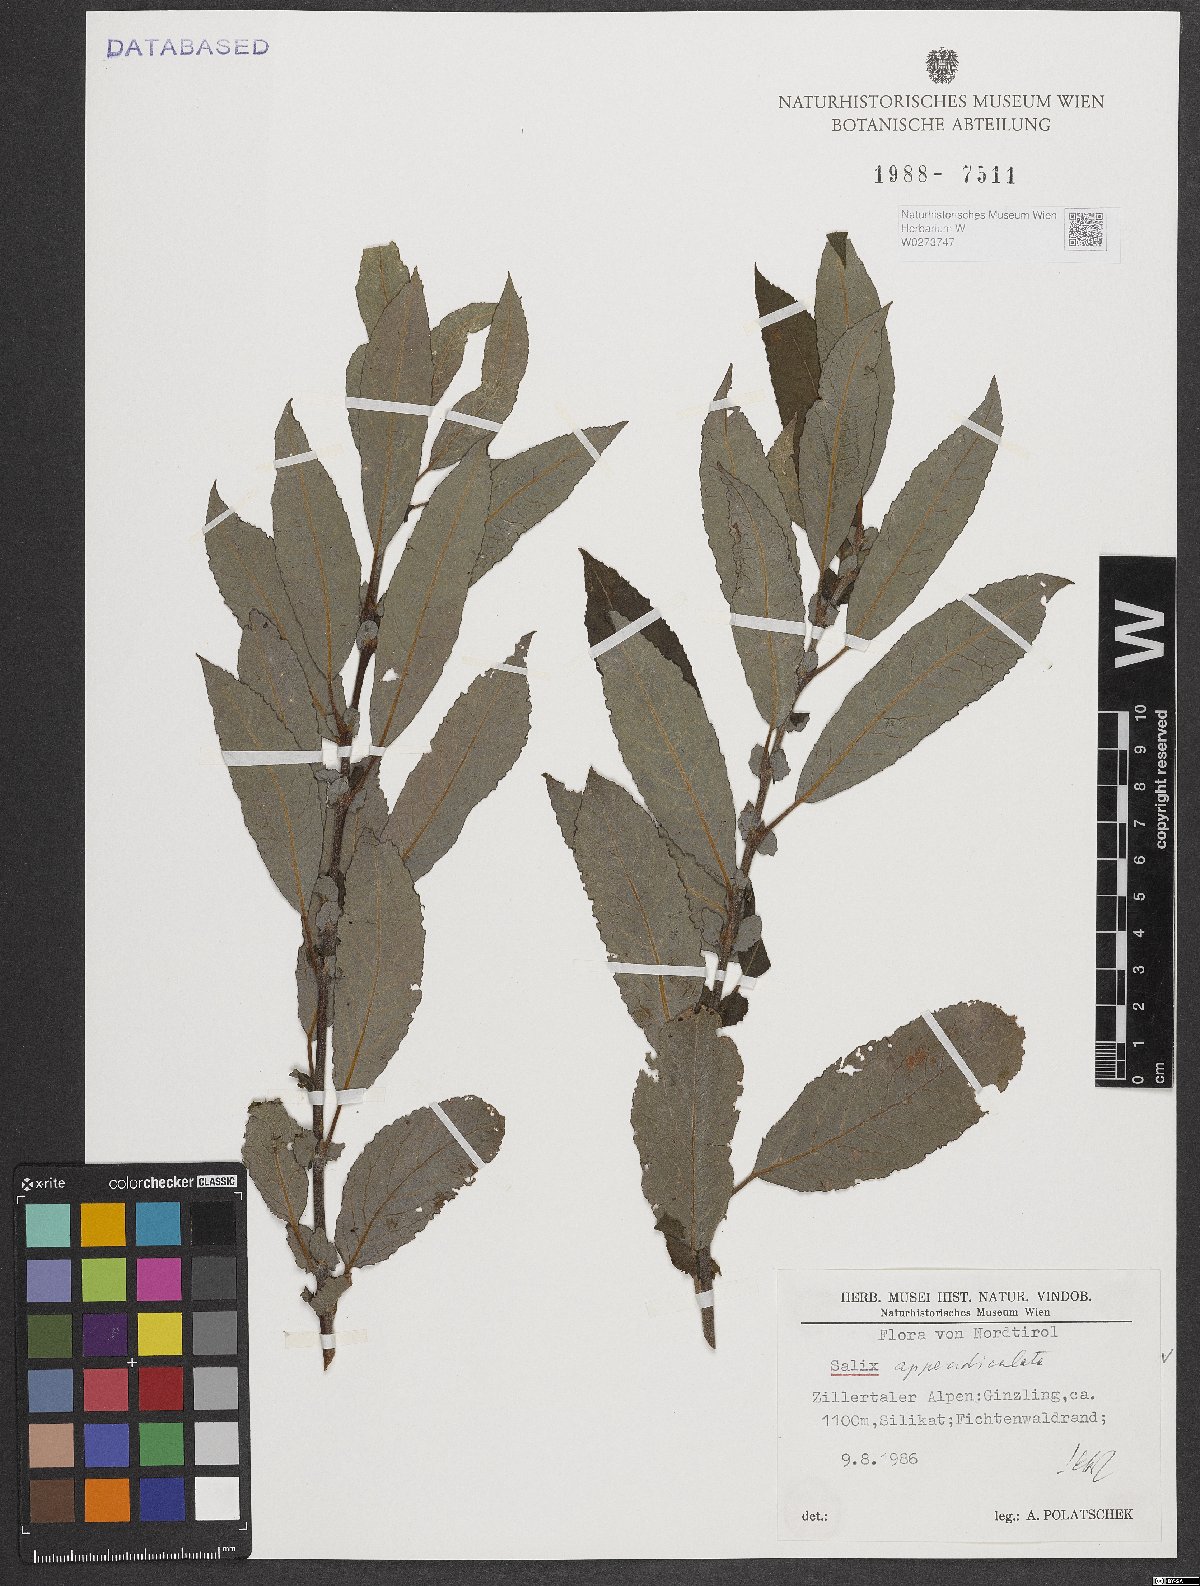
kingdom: Plantae
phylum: Tracheophyta
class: Magnoliopsida
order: Malpighiales
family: Salicaceae
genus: Salix
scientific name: Salix appendiculata
